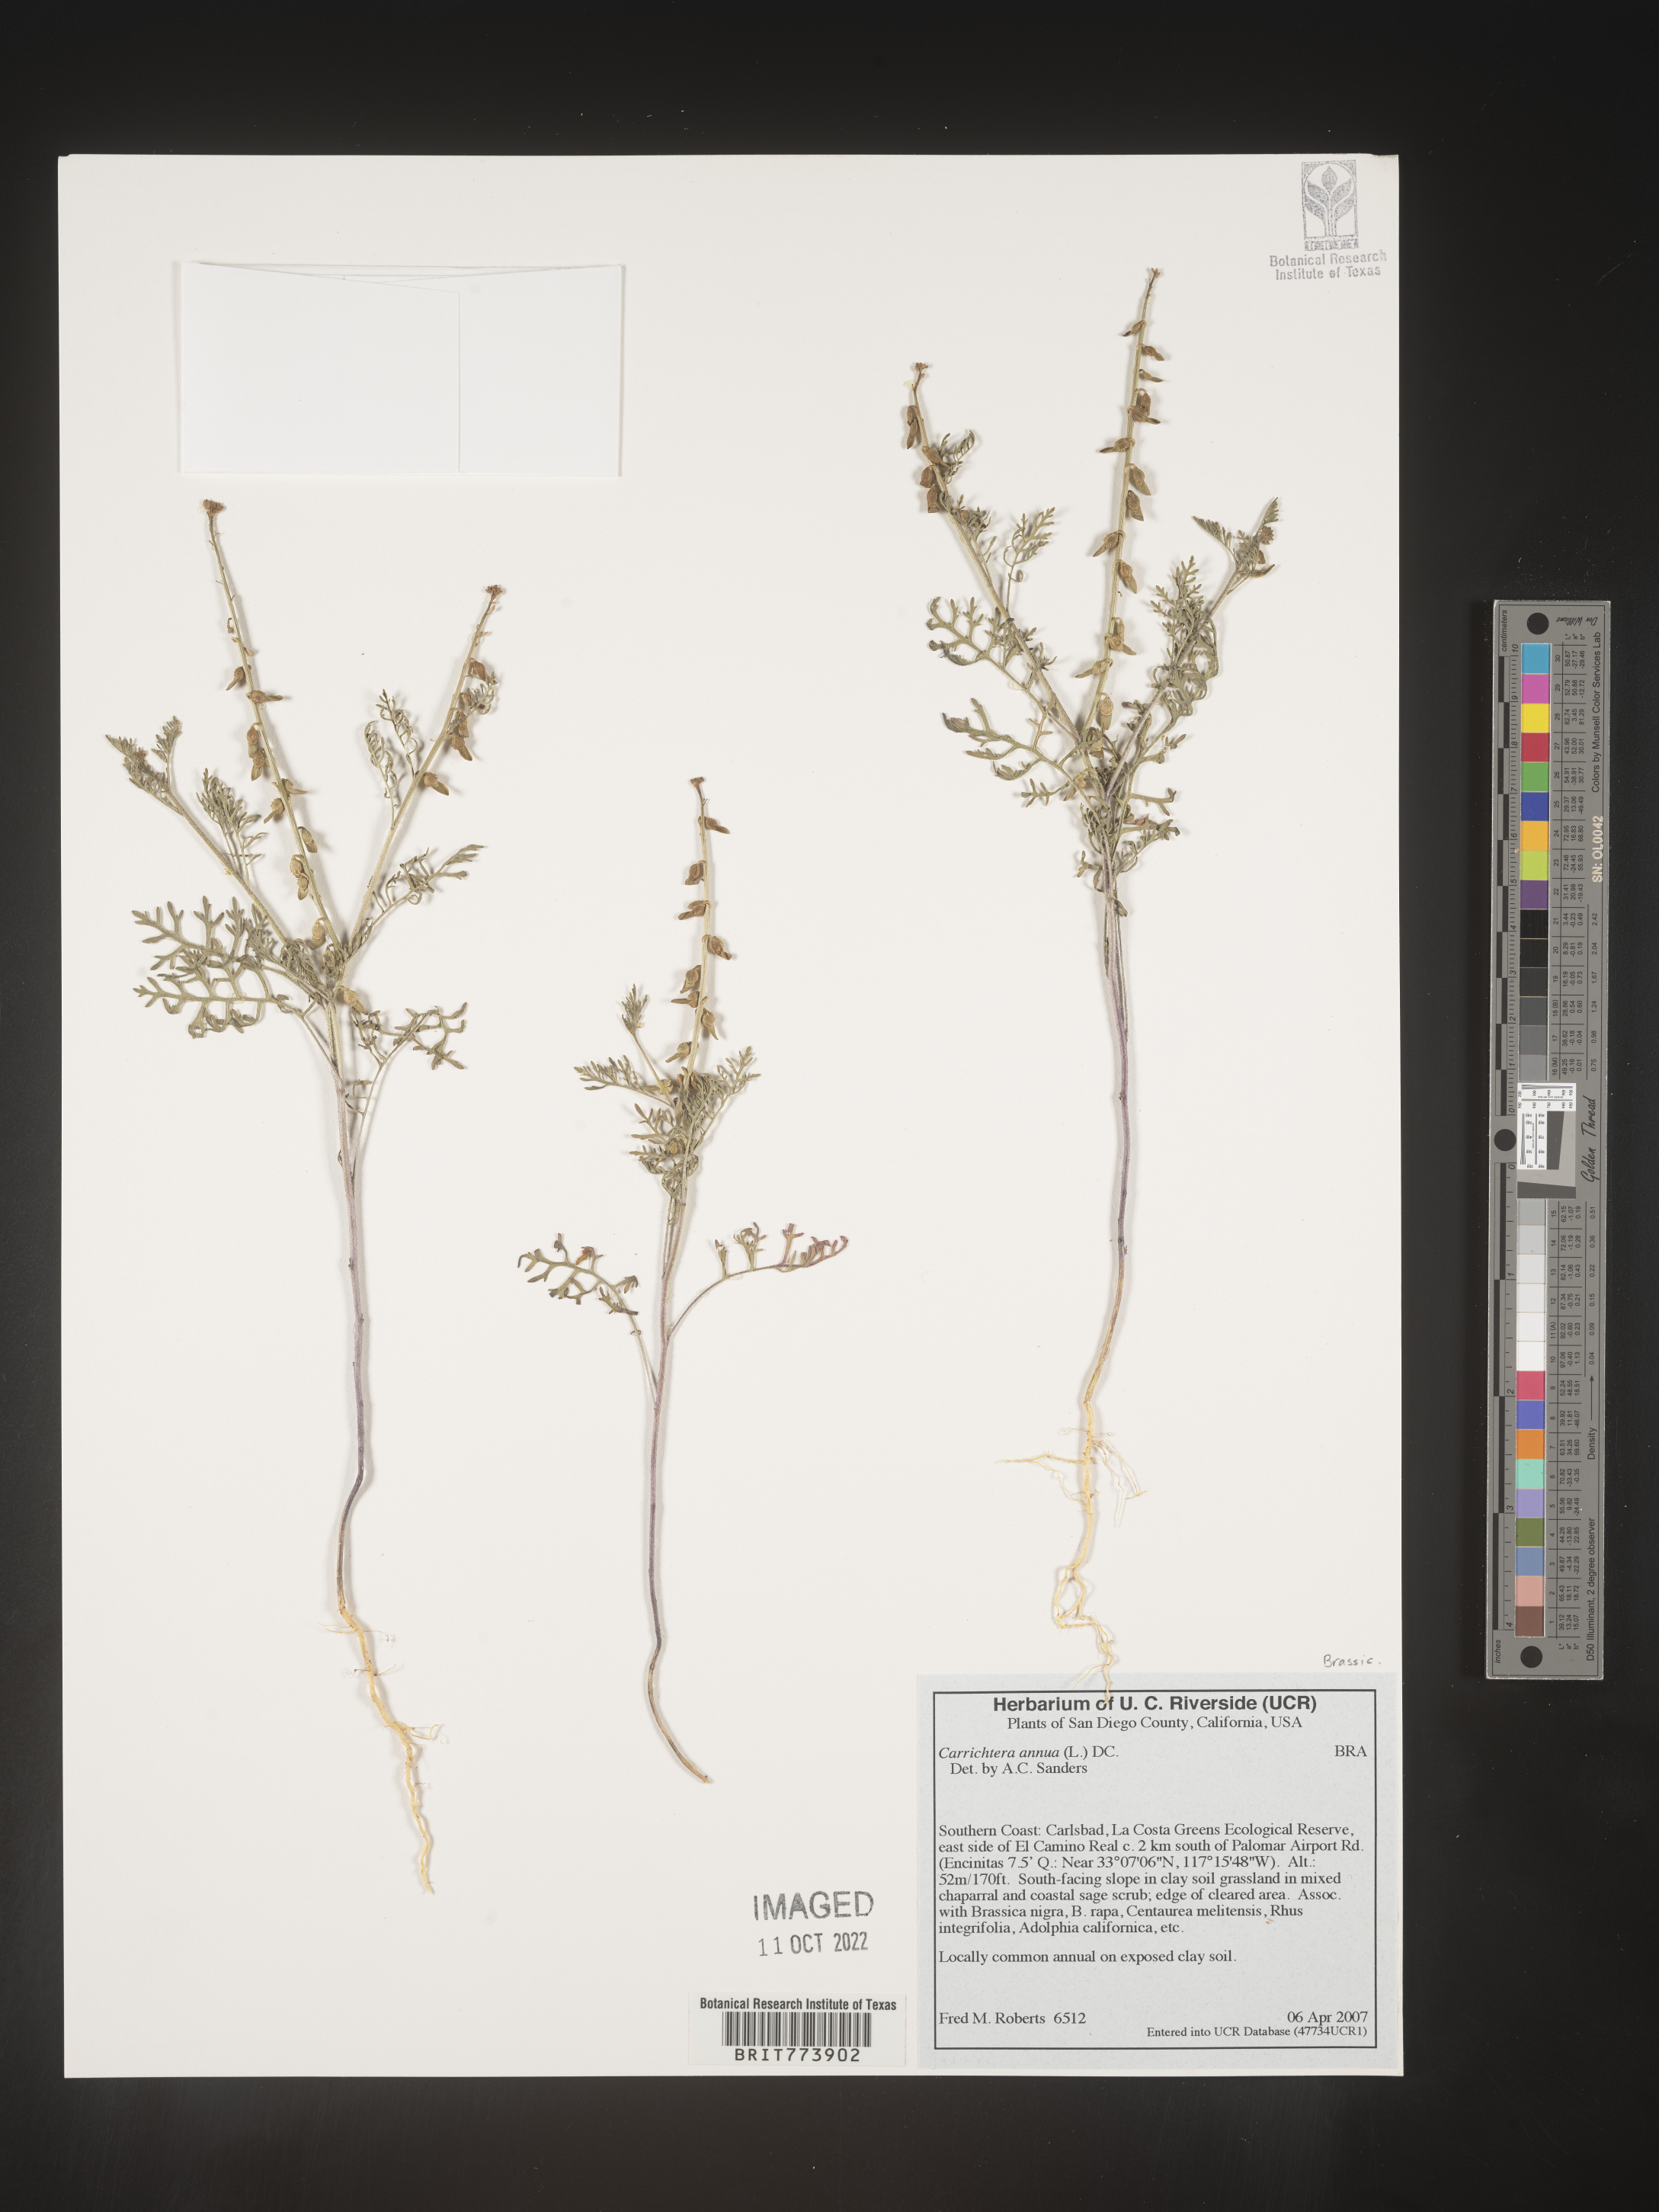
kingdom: Plantae
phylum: Tracheophyta
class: Magnoliopsida
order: Brassicales
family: Brassicaceae
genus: Carrichtera
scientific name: Carrichtera annua
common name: Cress rocket
